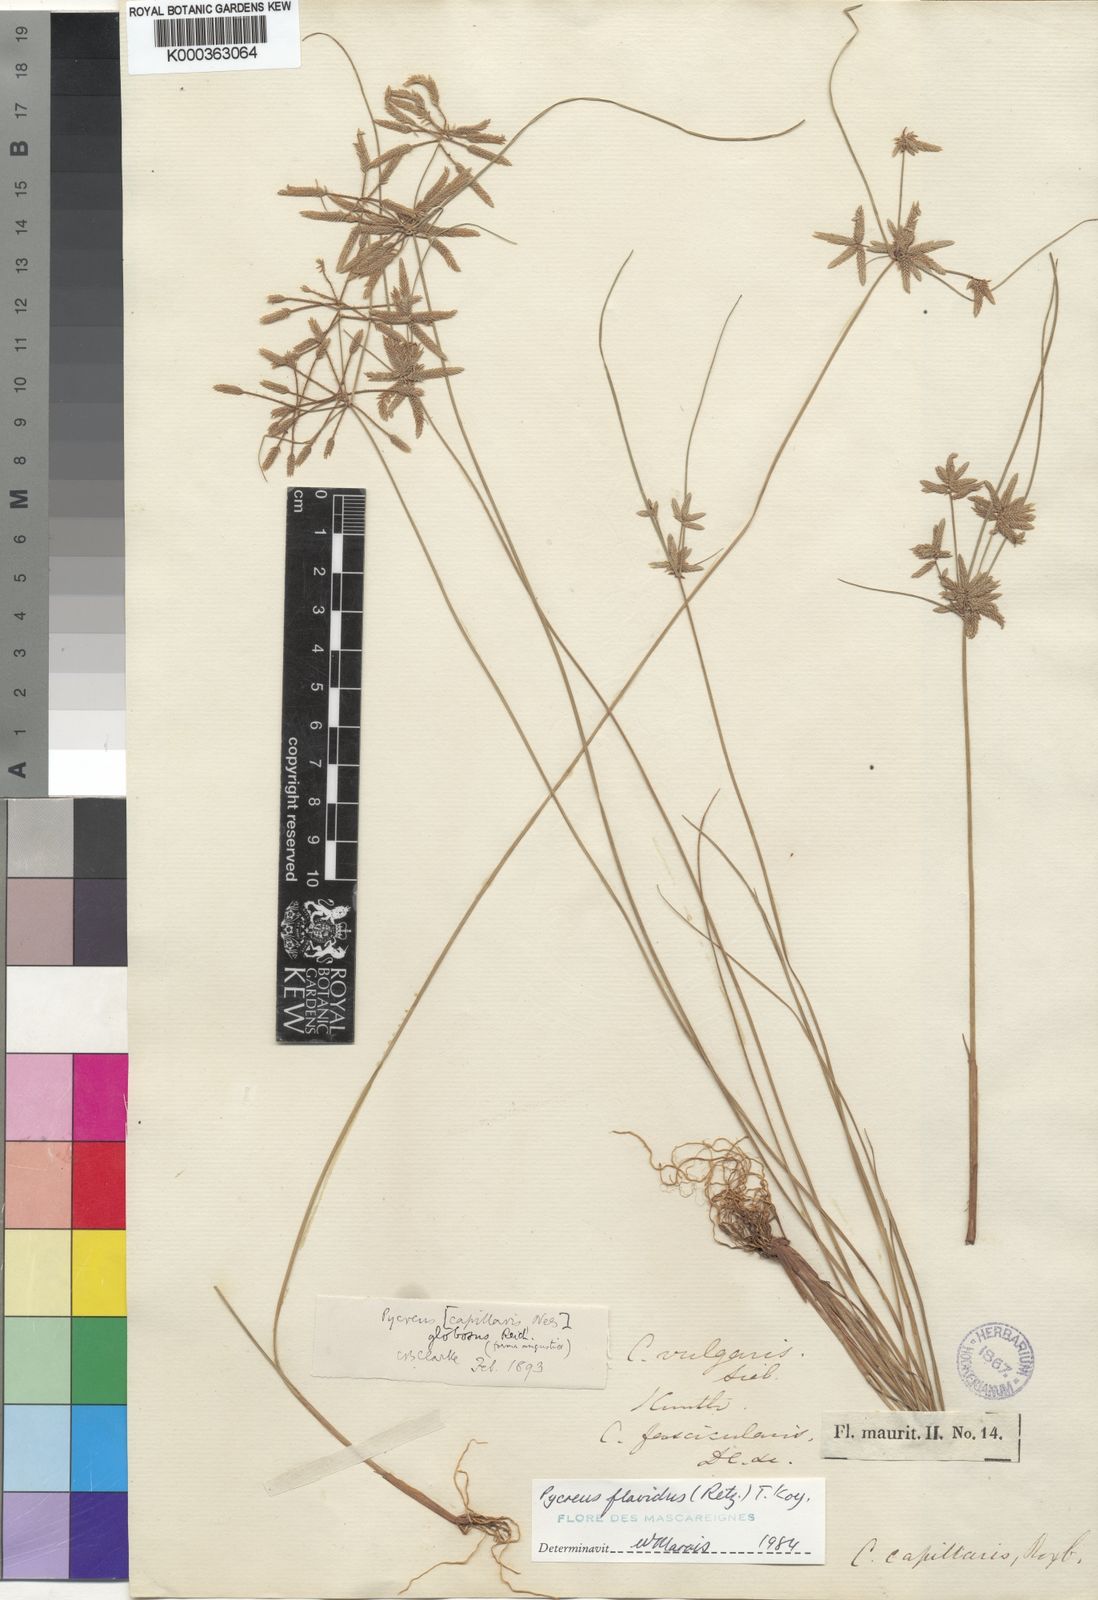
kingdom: Plantae
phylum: Tracheophyta
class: Liliopsida
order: Poales
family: Cyperaceae
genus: Cyperus
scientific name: Cyperus flavidus
